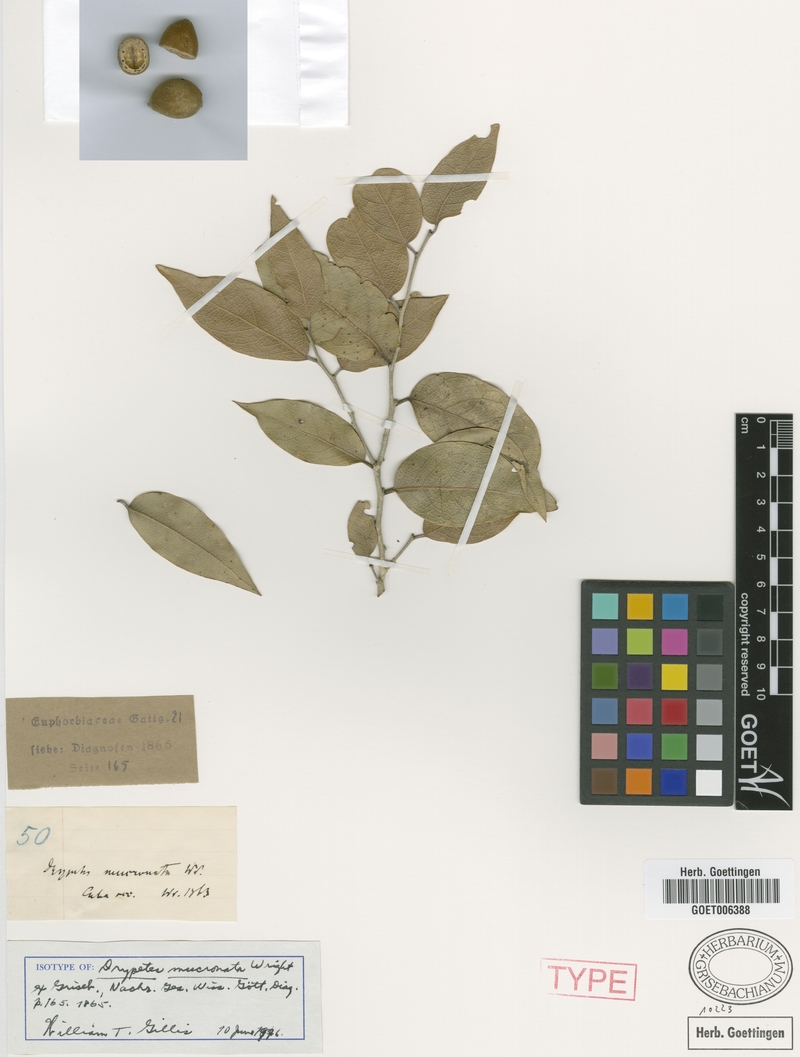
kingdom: Plantae
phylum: Tracheophyta
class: Magnoliopsida
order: Malpighiales
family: Putranjivaceae
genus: Drypetes
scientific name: Drypetes mucronata
